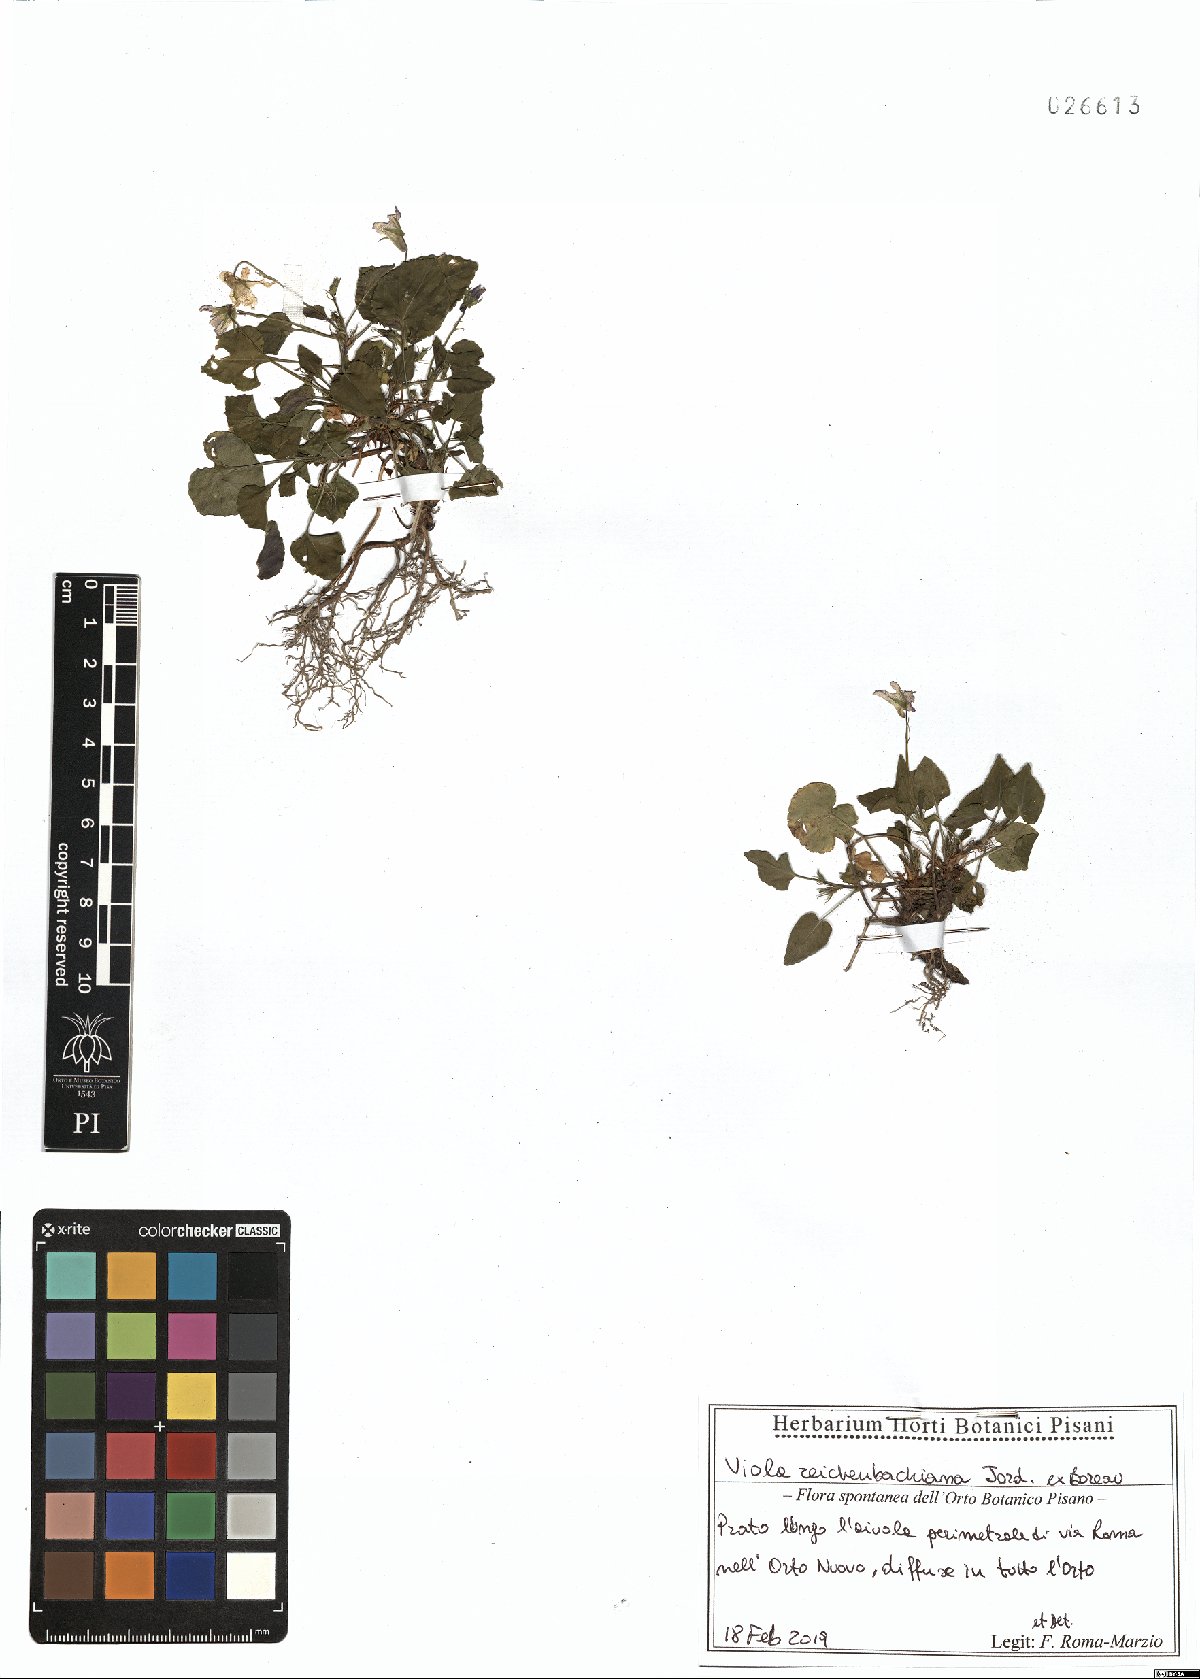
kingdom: Plantae
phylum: Tracheophyta
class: Magnoliopsida
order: Malpighiales
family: Violaceae
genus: Viola
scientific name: Viola reichenbachiana
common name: Early dog-violet
